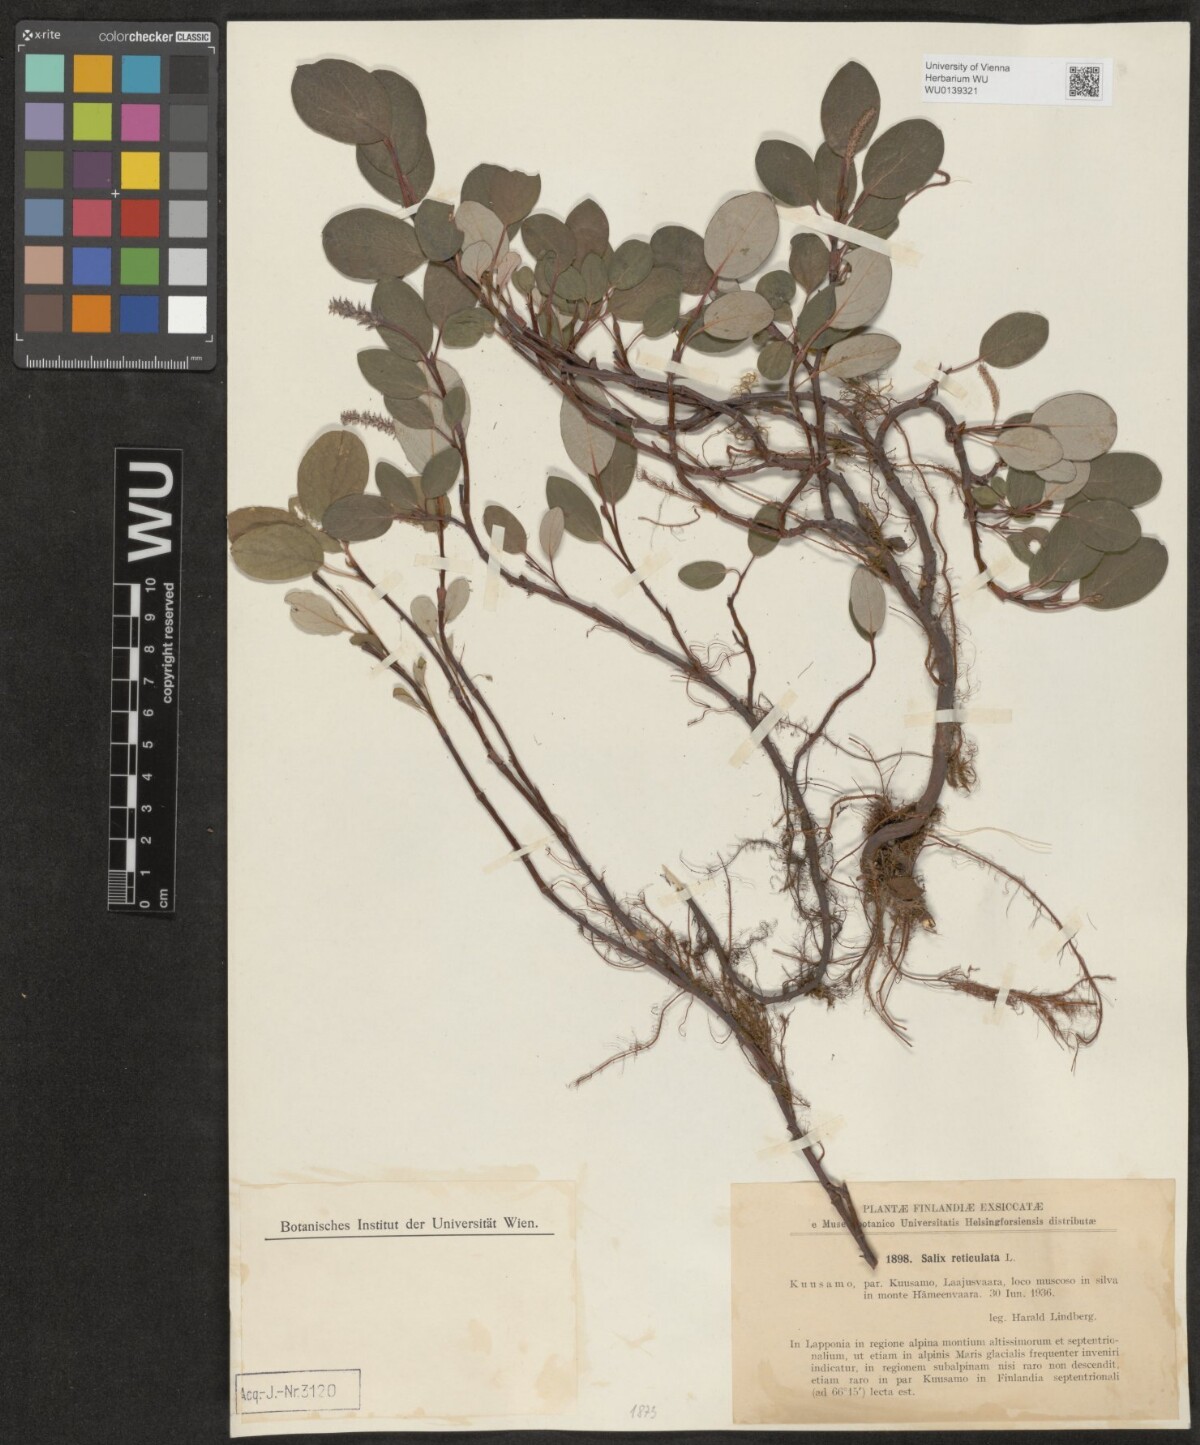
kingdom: Plantae
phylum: Tracheophyta
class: Magnoliopsida
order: Malpighiales
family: Salicaceae
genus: Salix
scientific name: Salix reticulata
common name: Net-leaved willow
